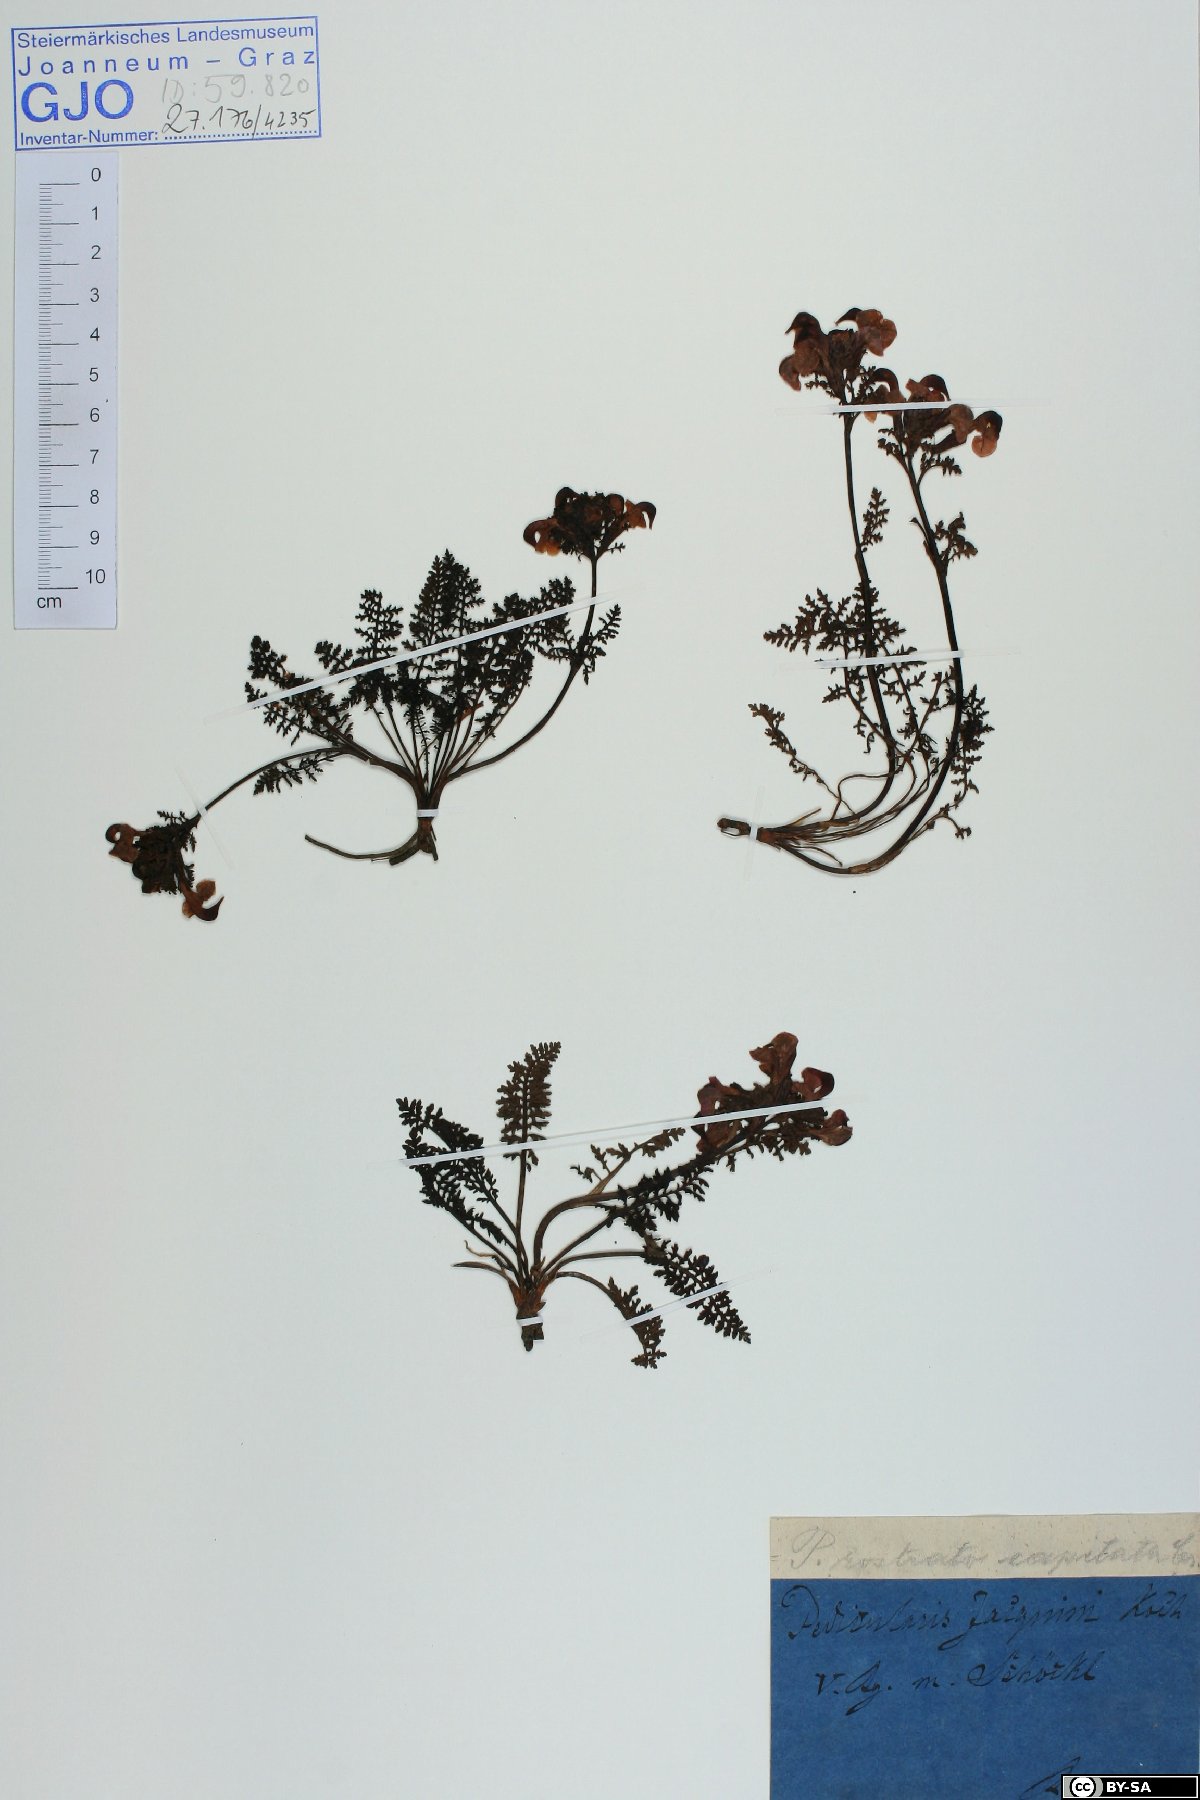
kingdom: Plantae
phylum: Tracheophyta
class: Magnoliopsida
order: Lamiales
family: Orobanchaceae
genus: Pedicularis
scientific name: Pedicularis rostratocapitata
